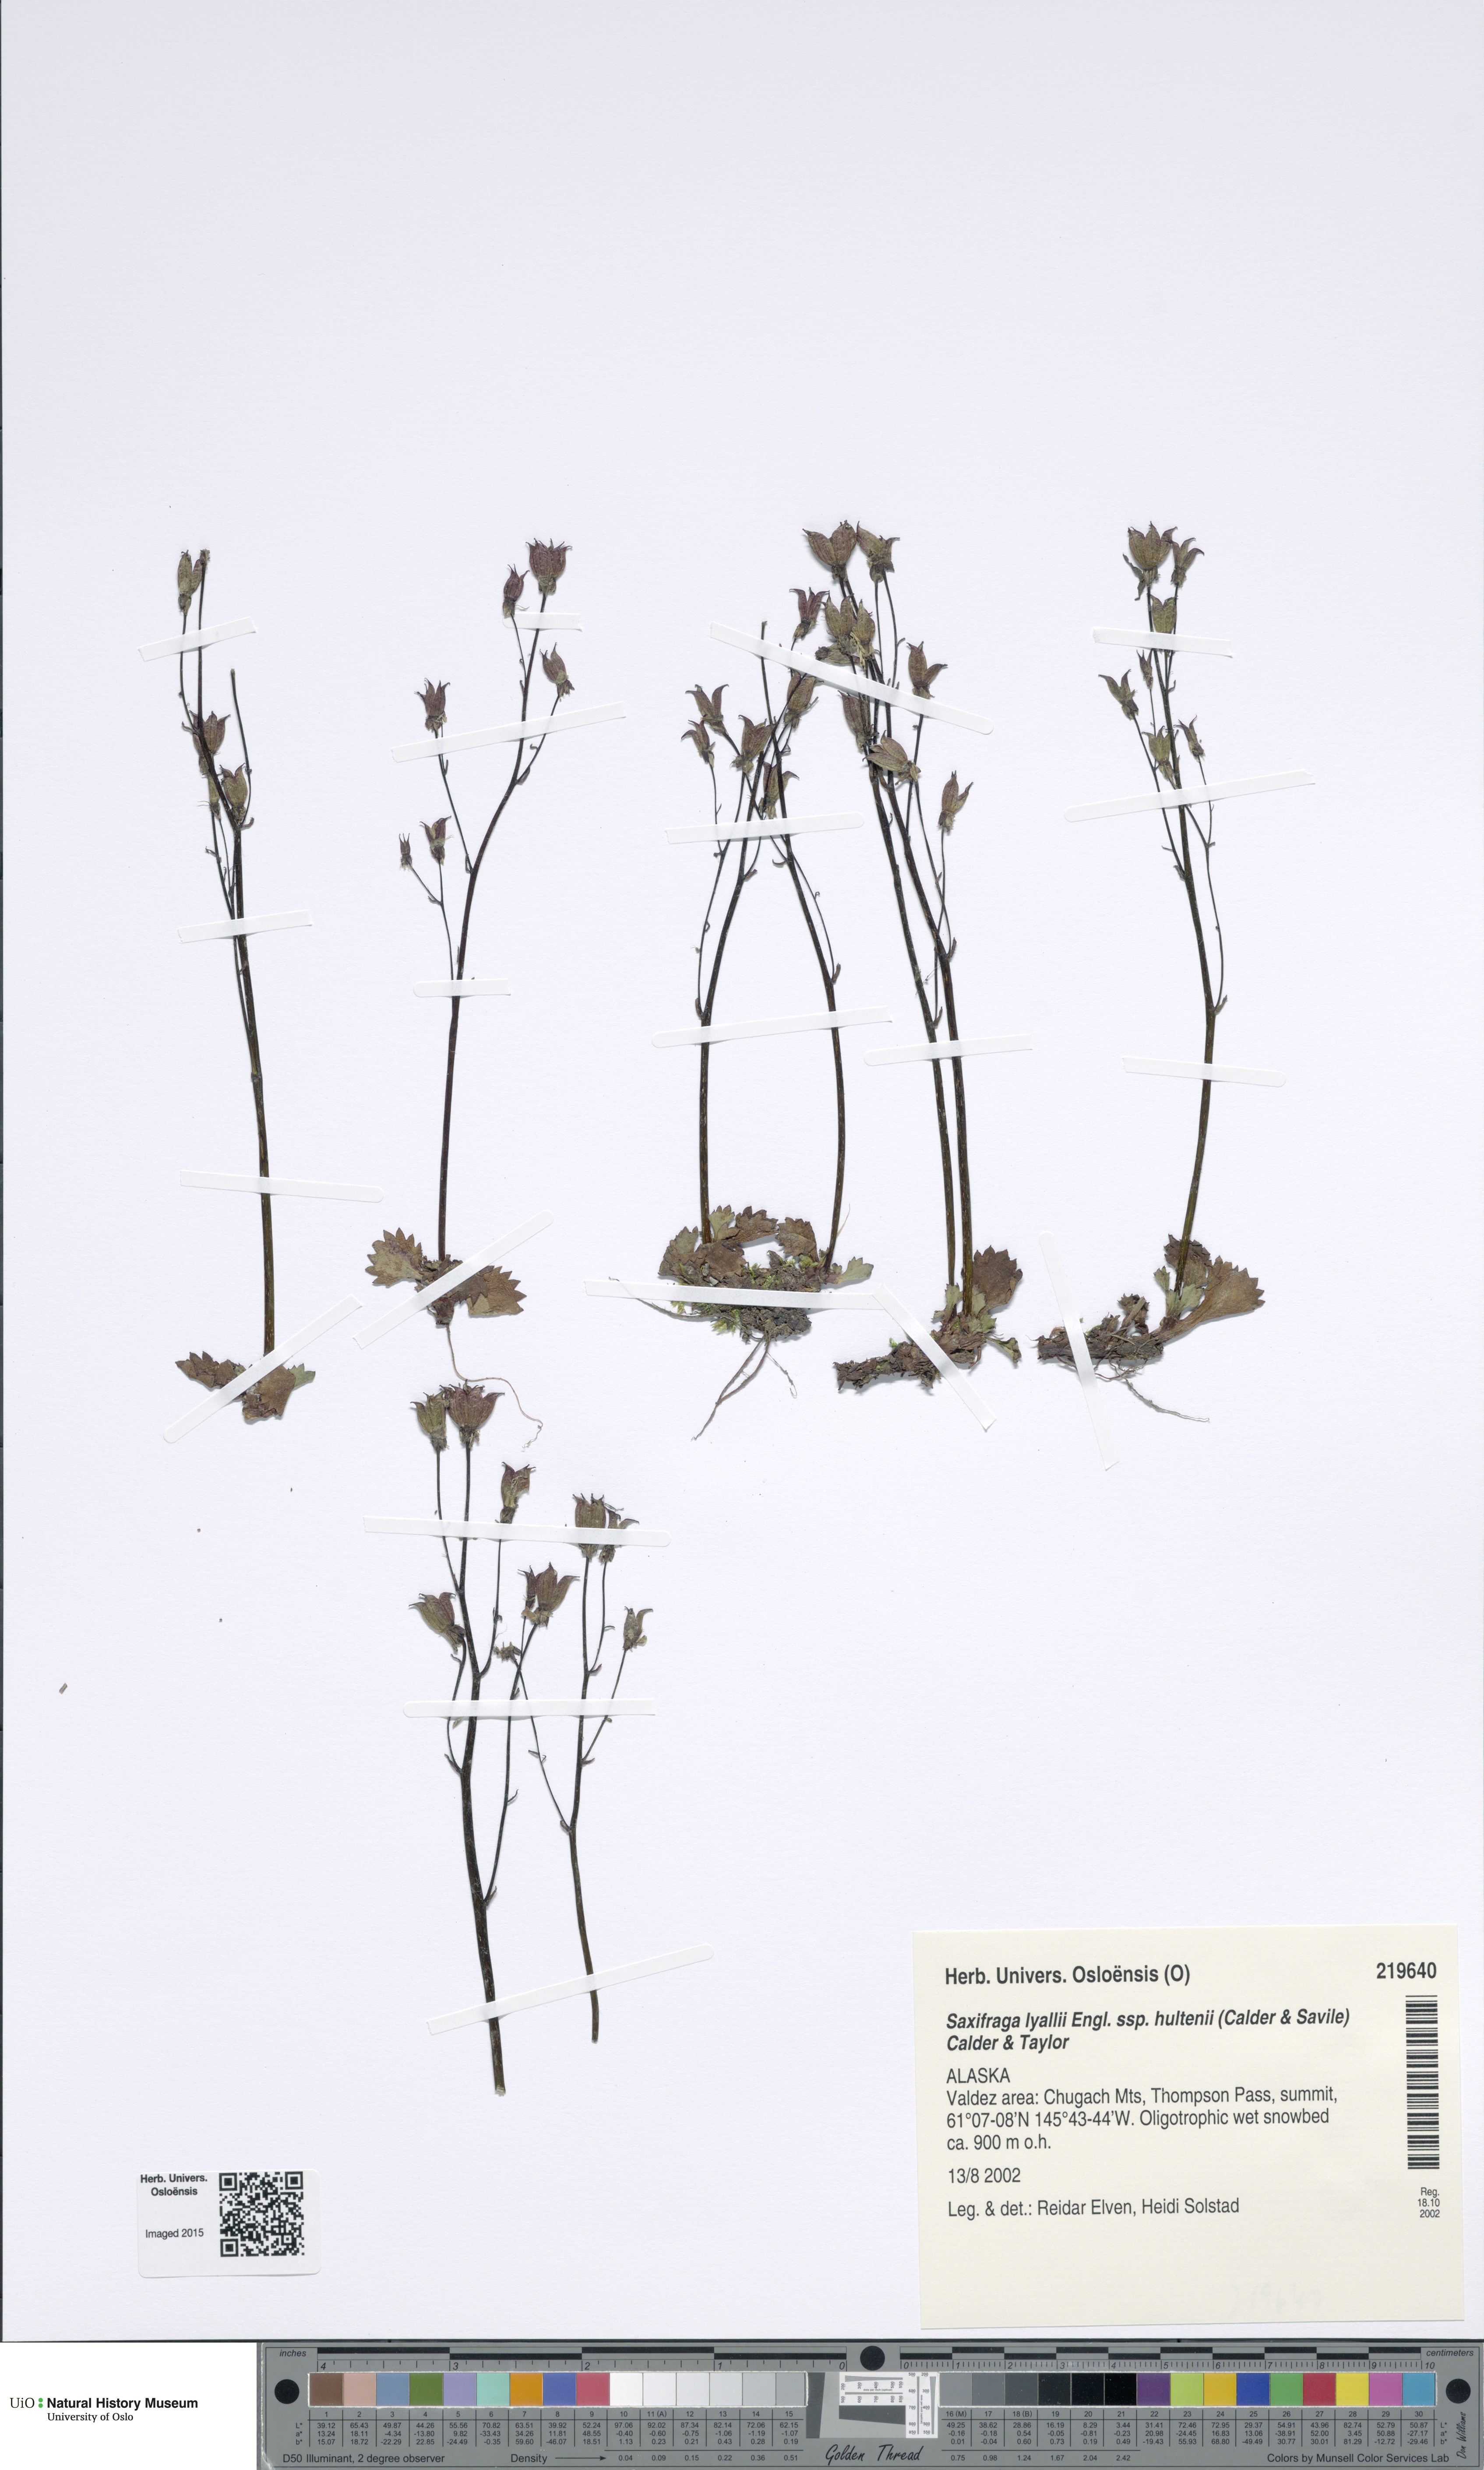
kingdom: Plantae
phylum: Tracheophyta
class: Magnoliopsida
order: Saxifragales
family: Saxifragaceae
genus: Micranthes
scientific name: Micranthes lyallii
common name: Lyall's saxifrage
